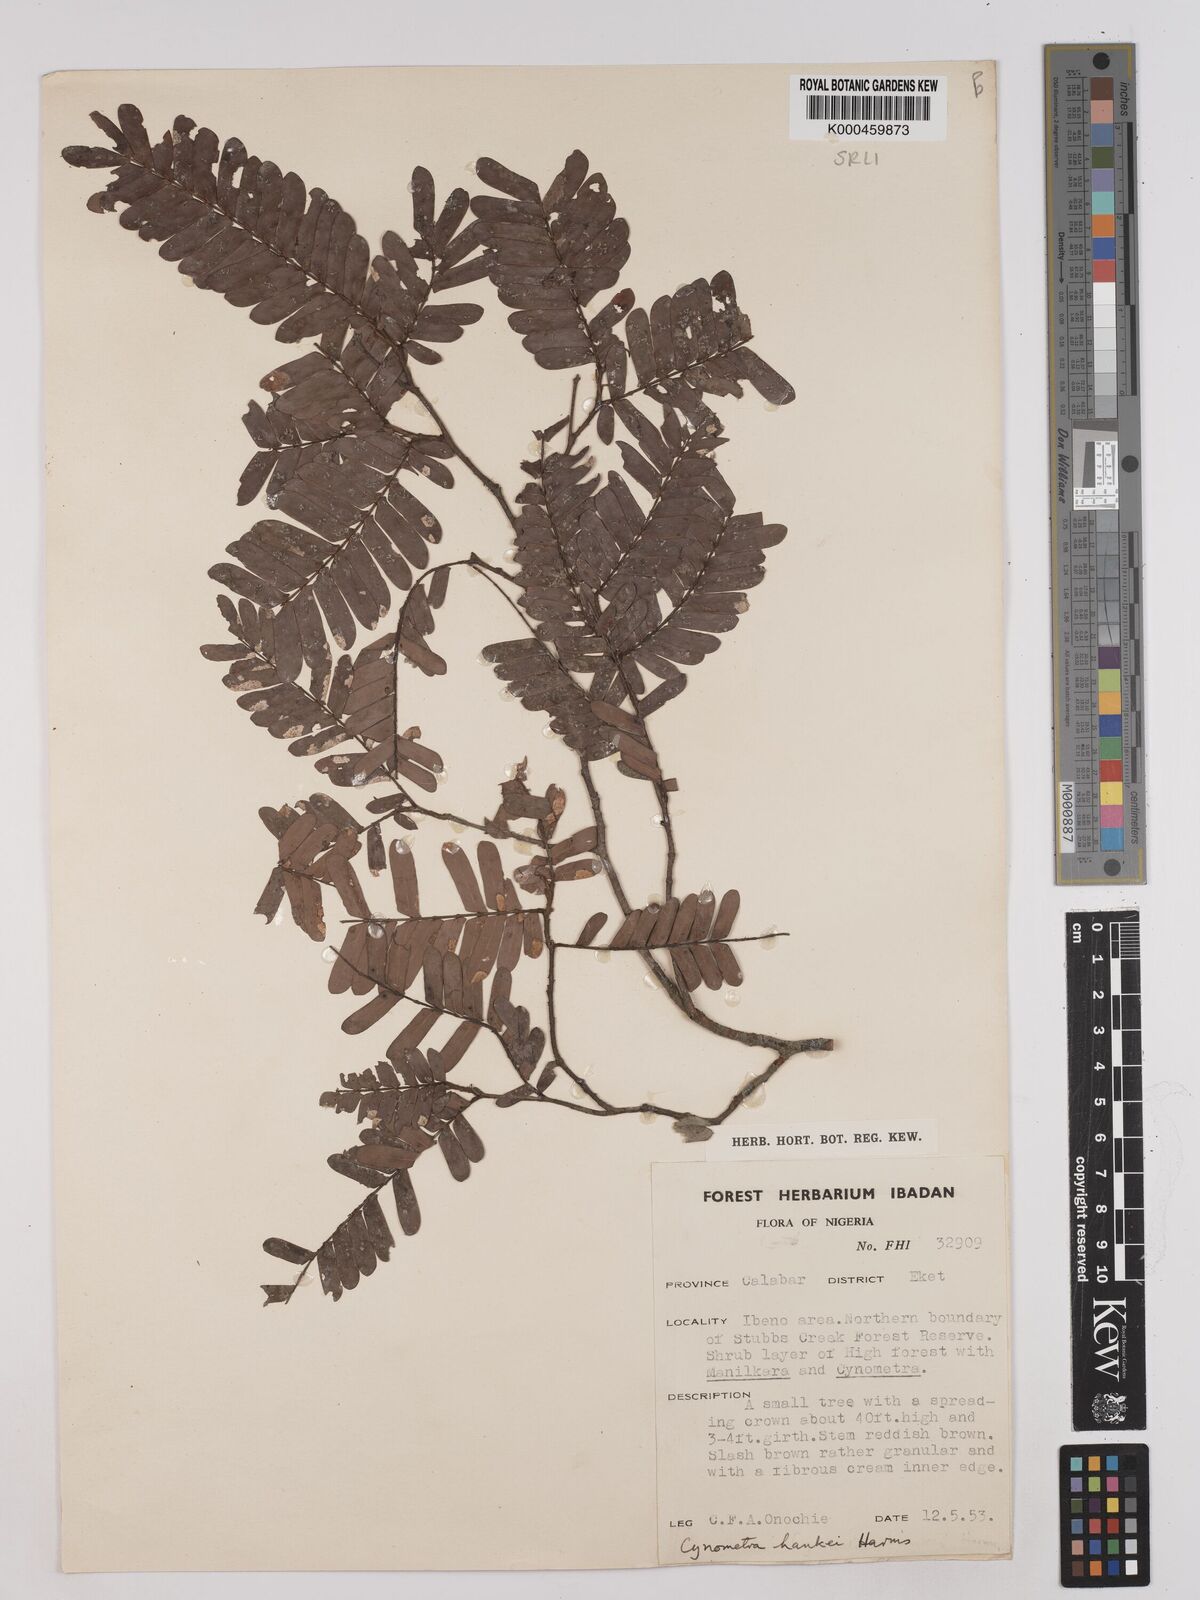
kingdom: Plantae
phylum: Tracheophyta
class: Magnoliopsida
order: Fabales
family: Fabaceae
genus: Cynometra
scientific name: Cynometra hankei
